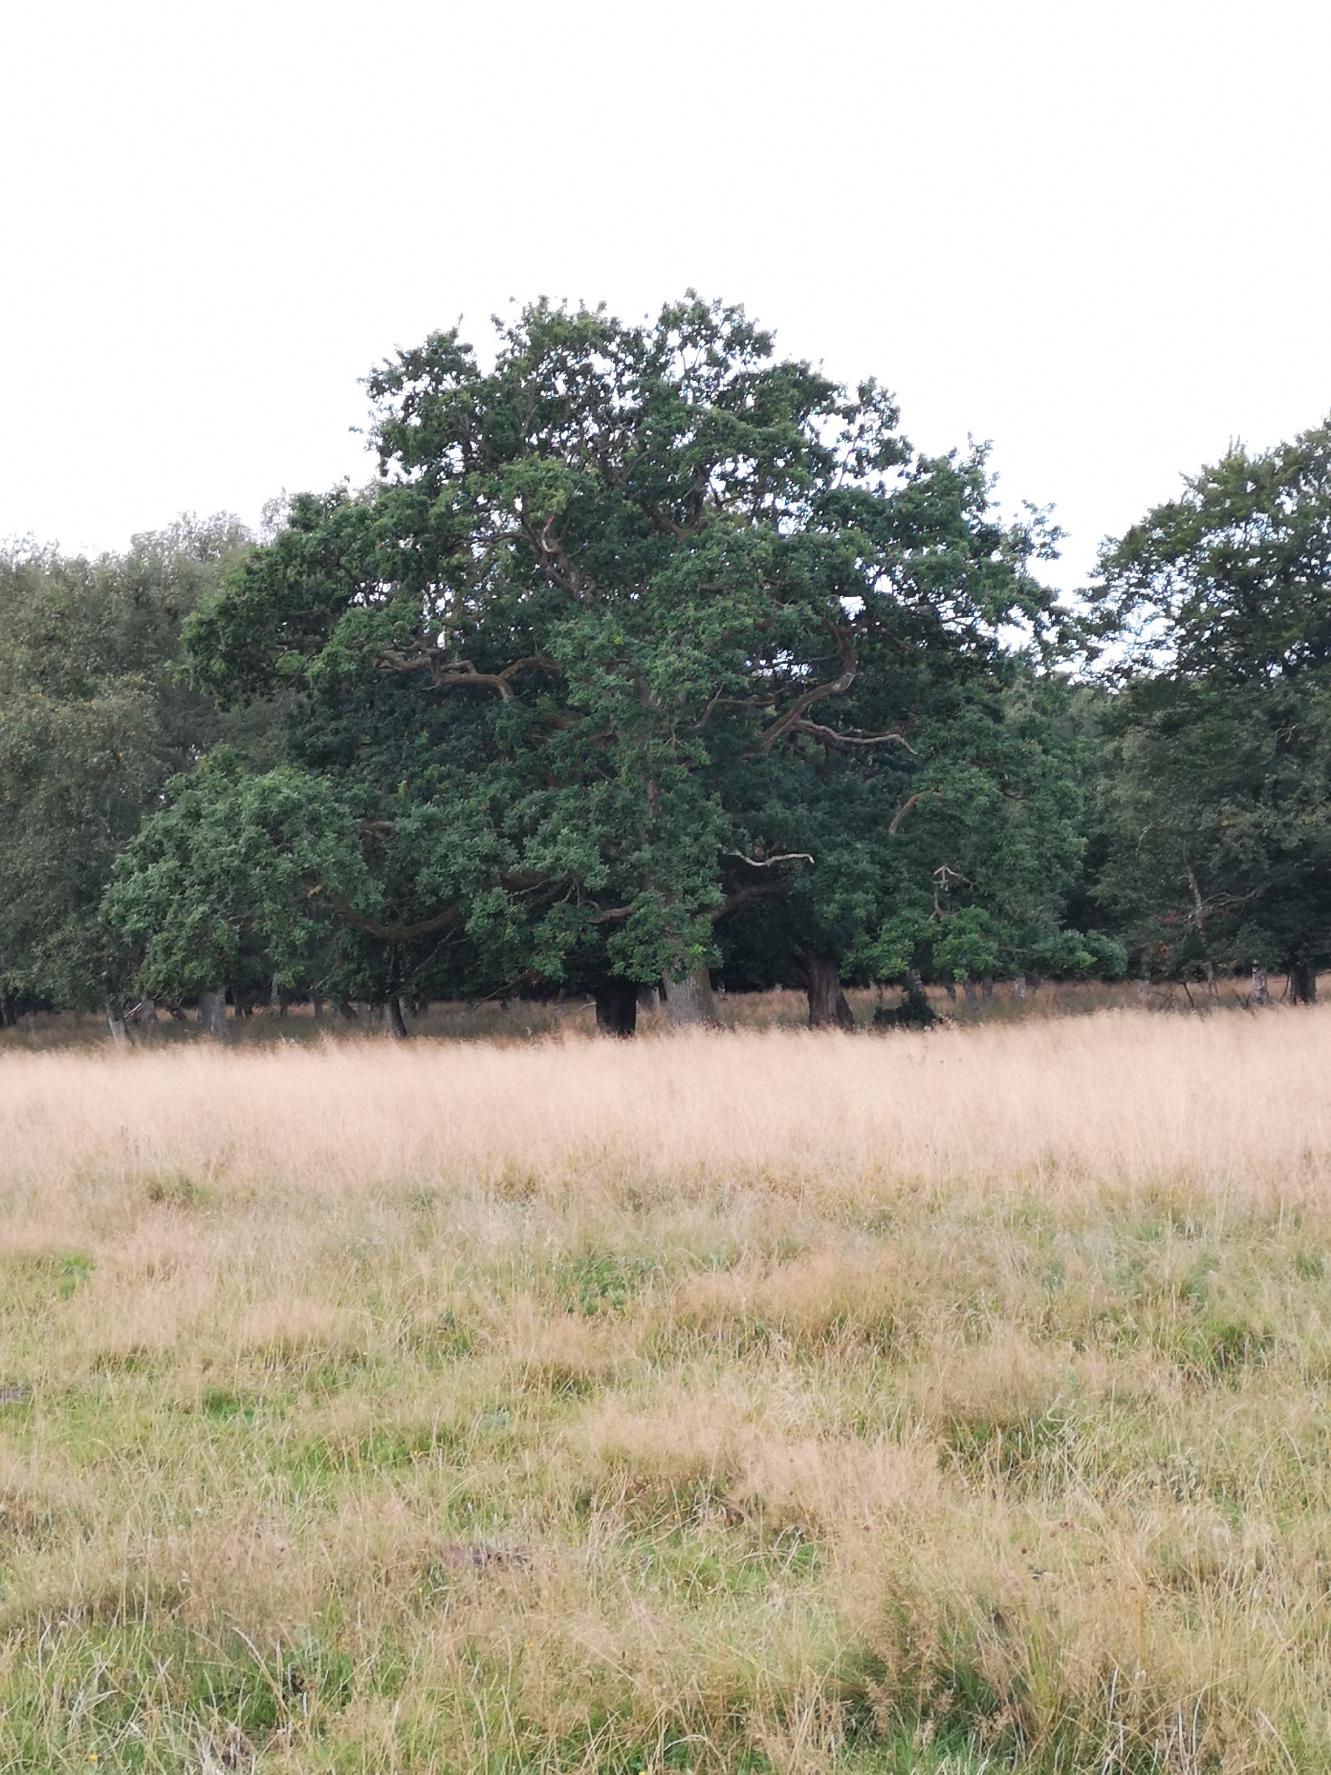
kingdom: Plantae
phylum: Tracheophyta
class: Magnoliopsida
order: Fagales
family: Fagaceae
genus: Quercus
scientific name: Quercus robur
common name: Stilk-eg/almindelig eg
